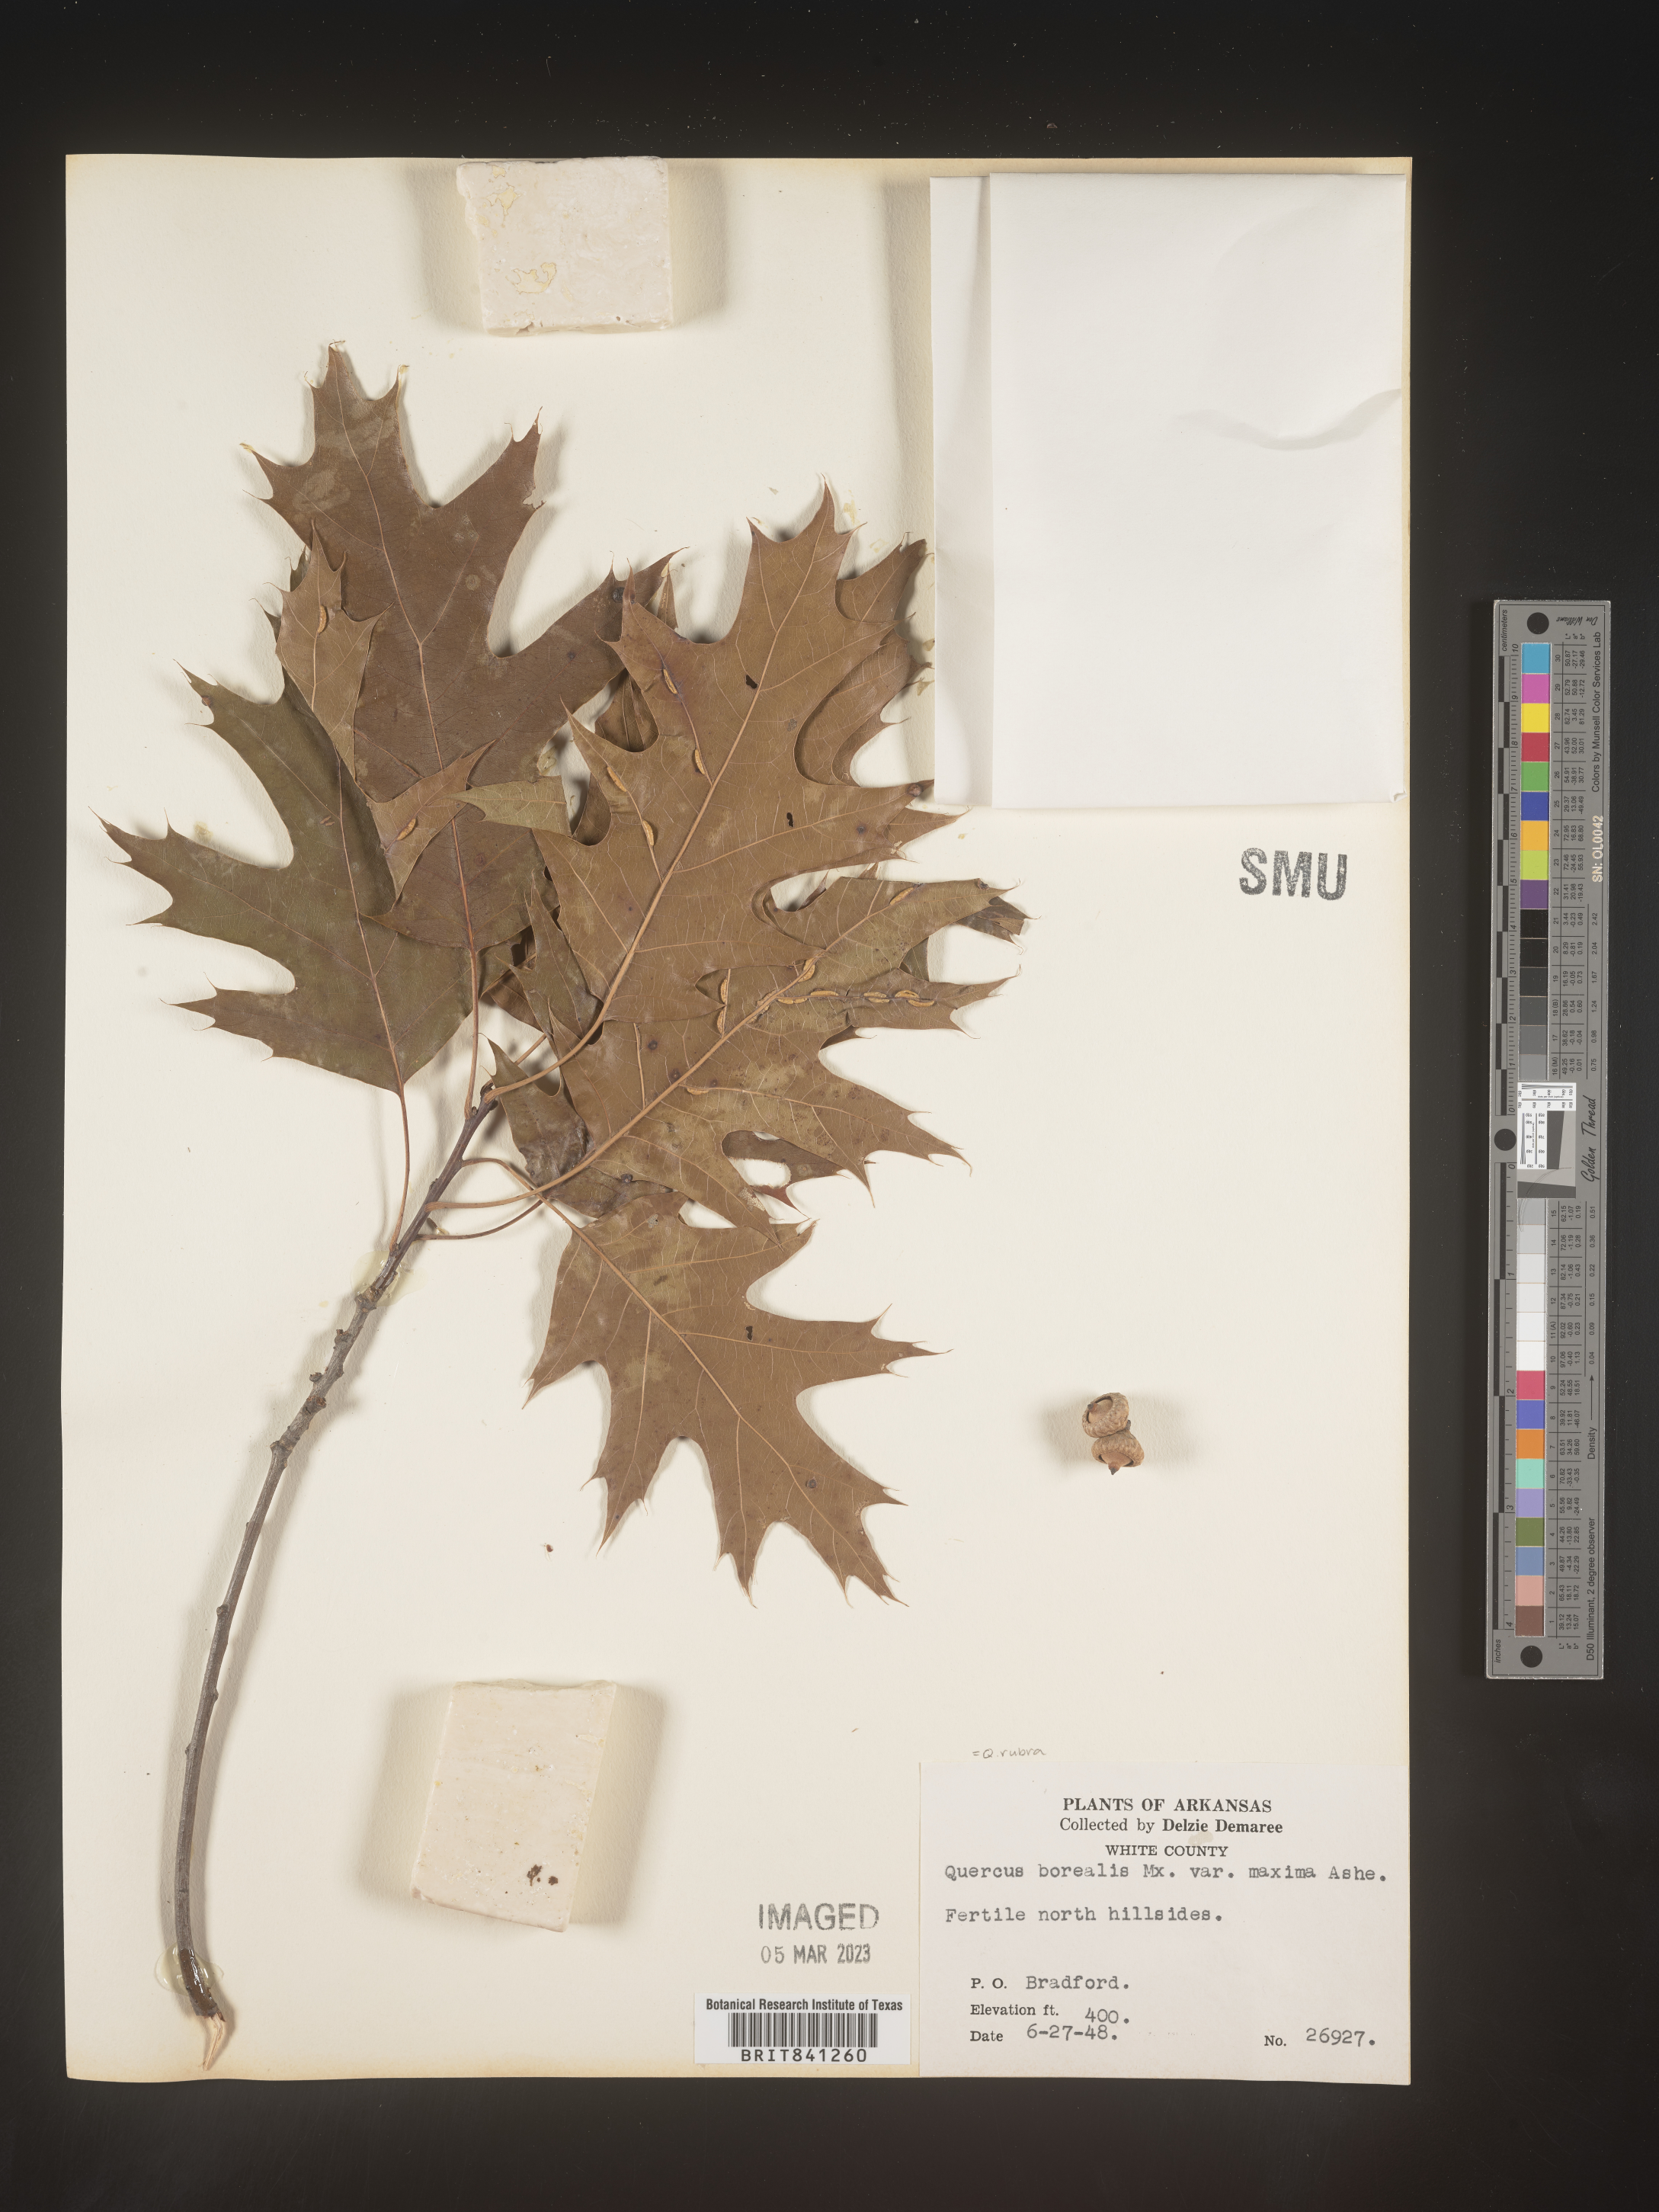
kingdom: Plantae
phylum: Tracheophyta
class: Magnoliopsida
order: Fagales
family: Fagaceae
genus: Quercus
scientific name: Quercus rubra
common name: Red oak
